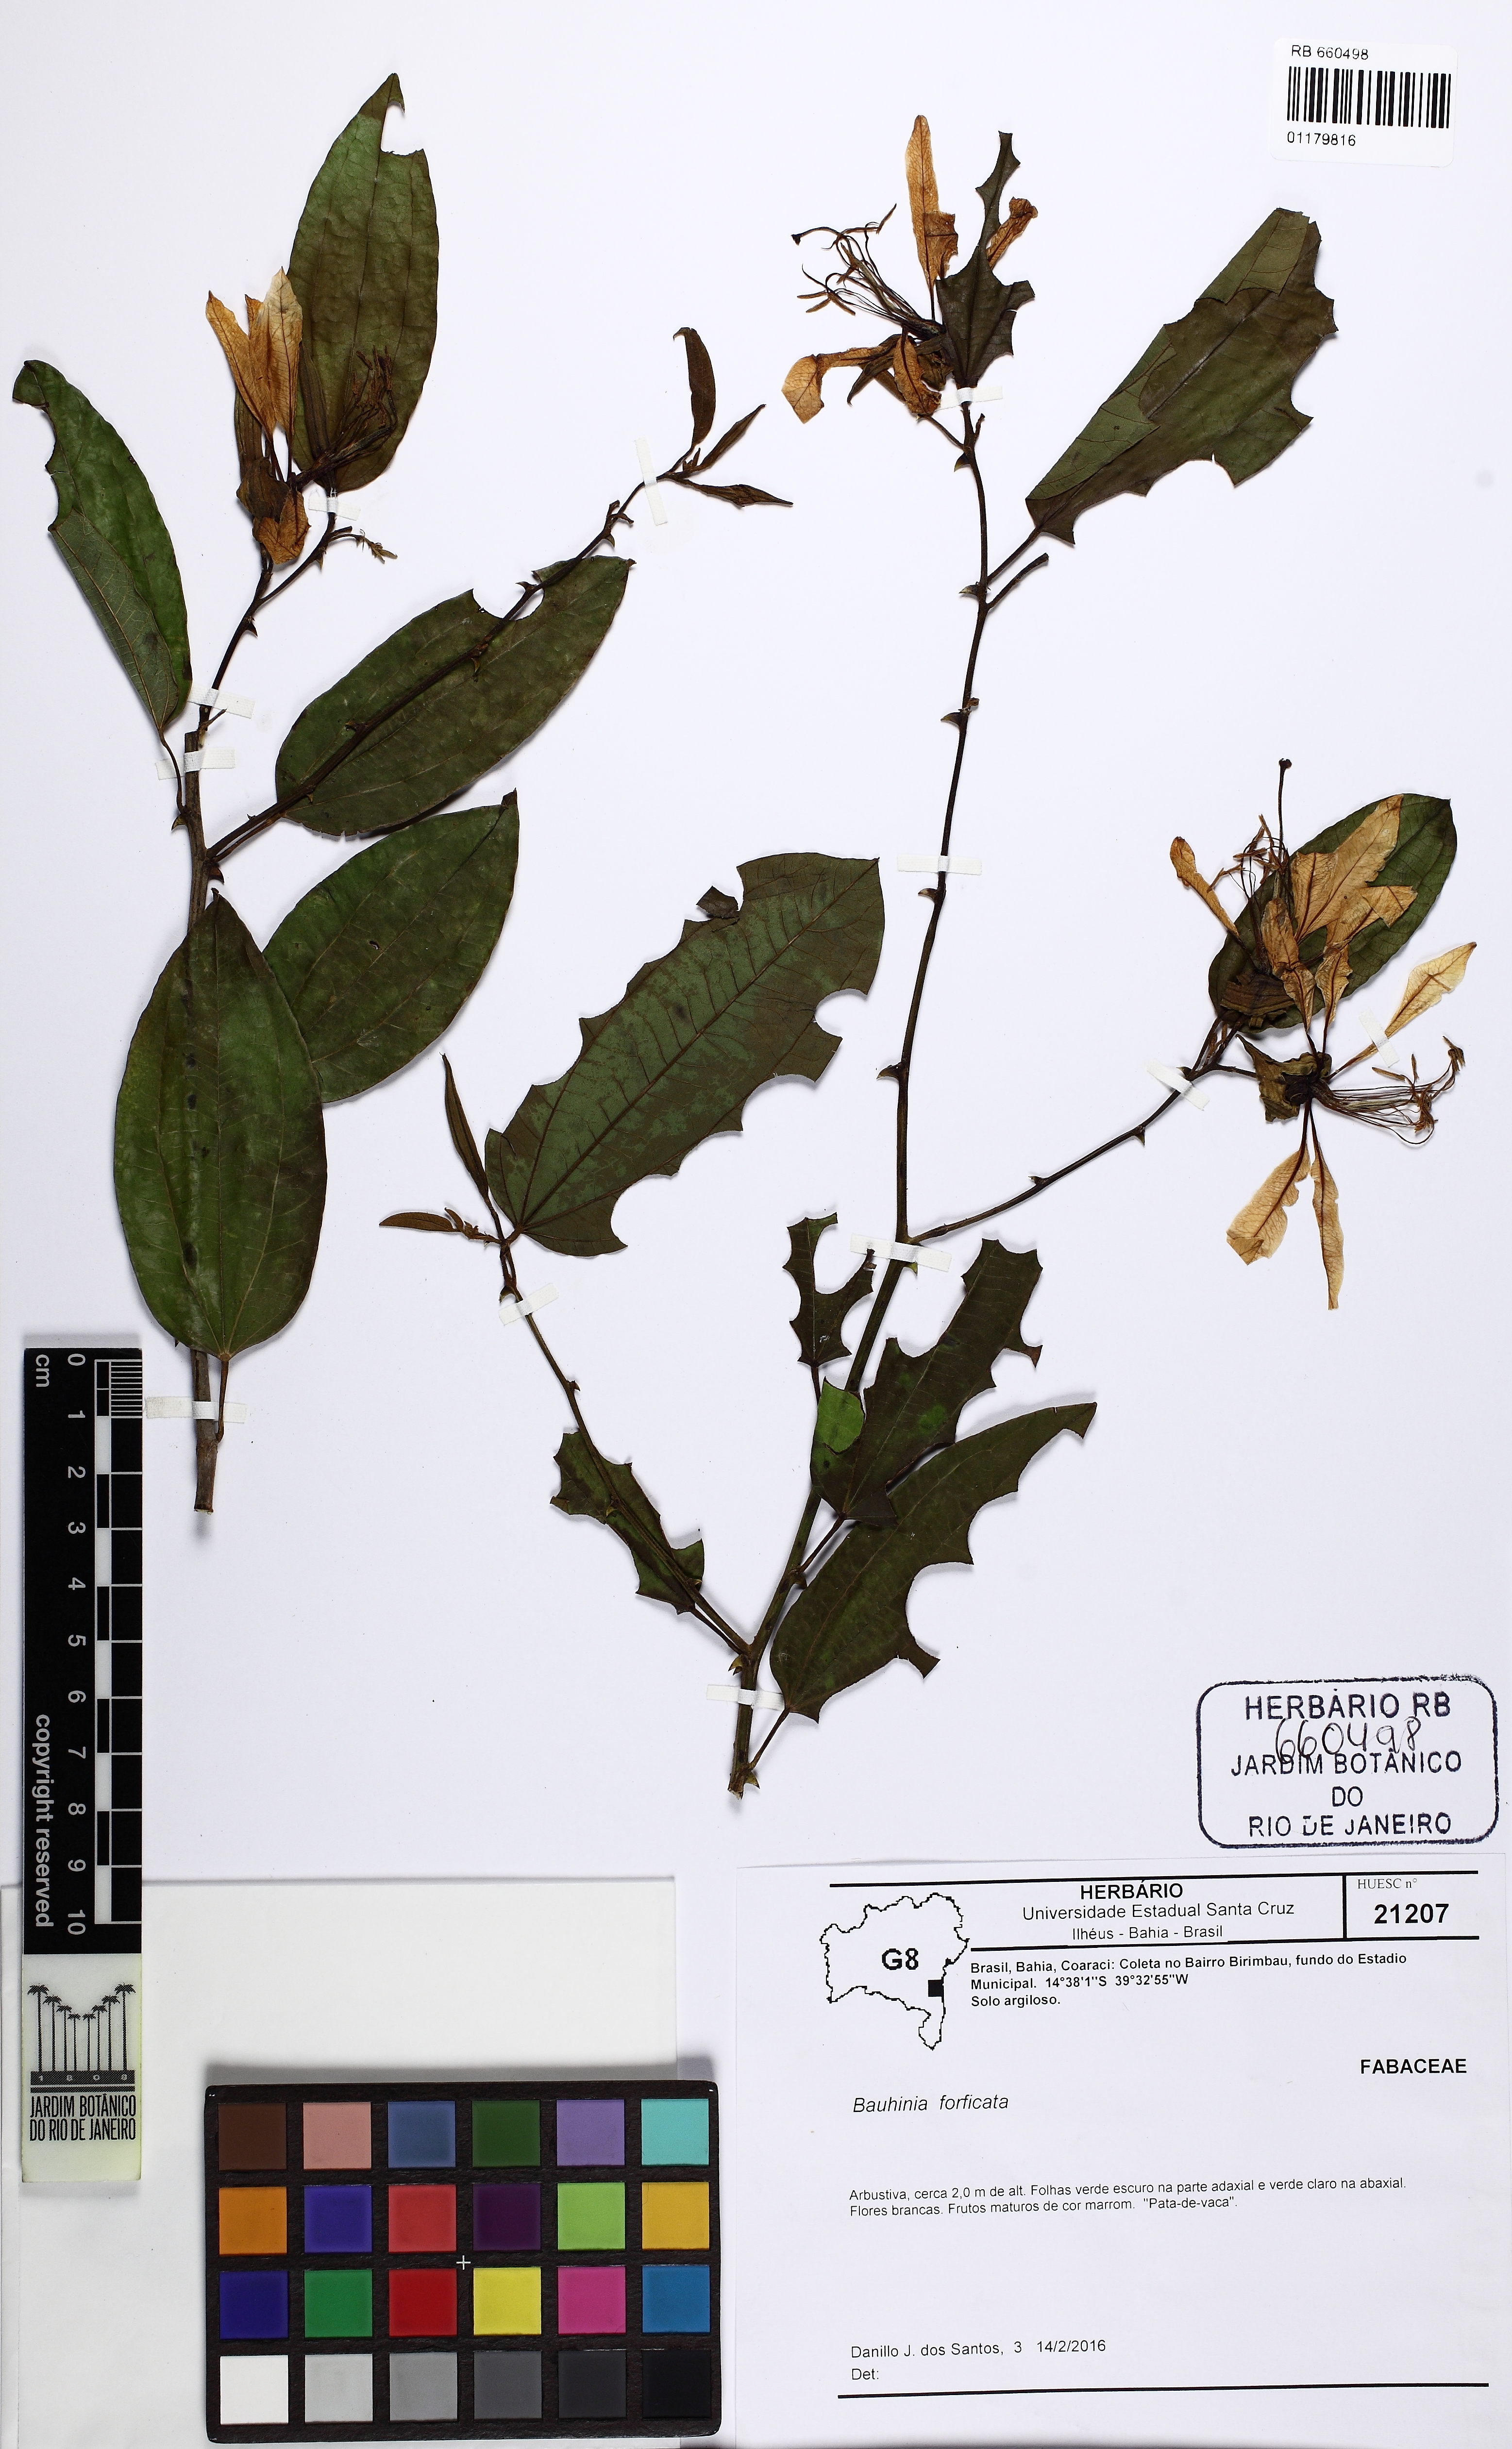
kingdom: Plantae
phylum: Tracheophyta
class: Magnoliopsida
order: Fabales
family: Fabaceae
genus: Bauhinia
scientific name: Bauhinia forficata
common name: Orchid tree
